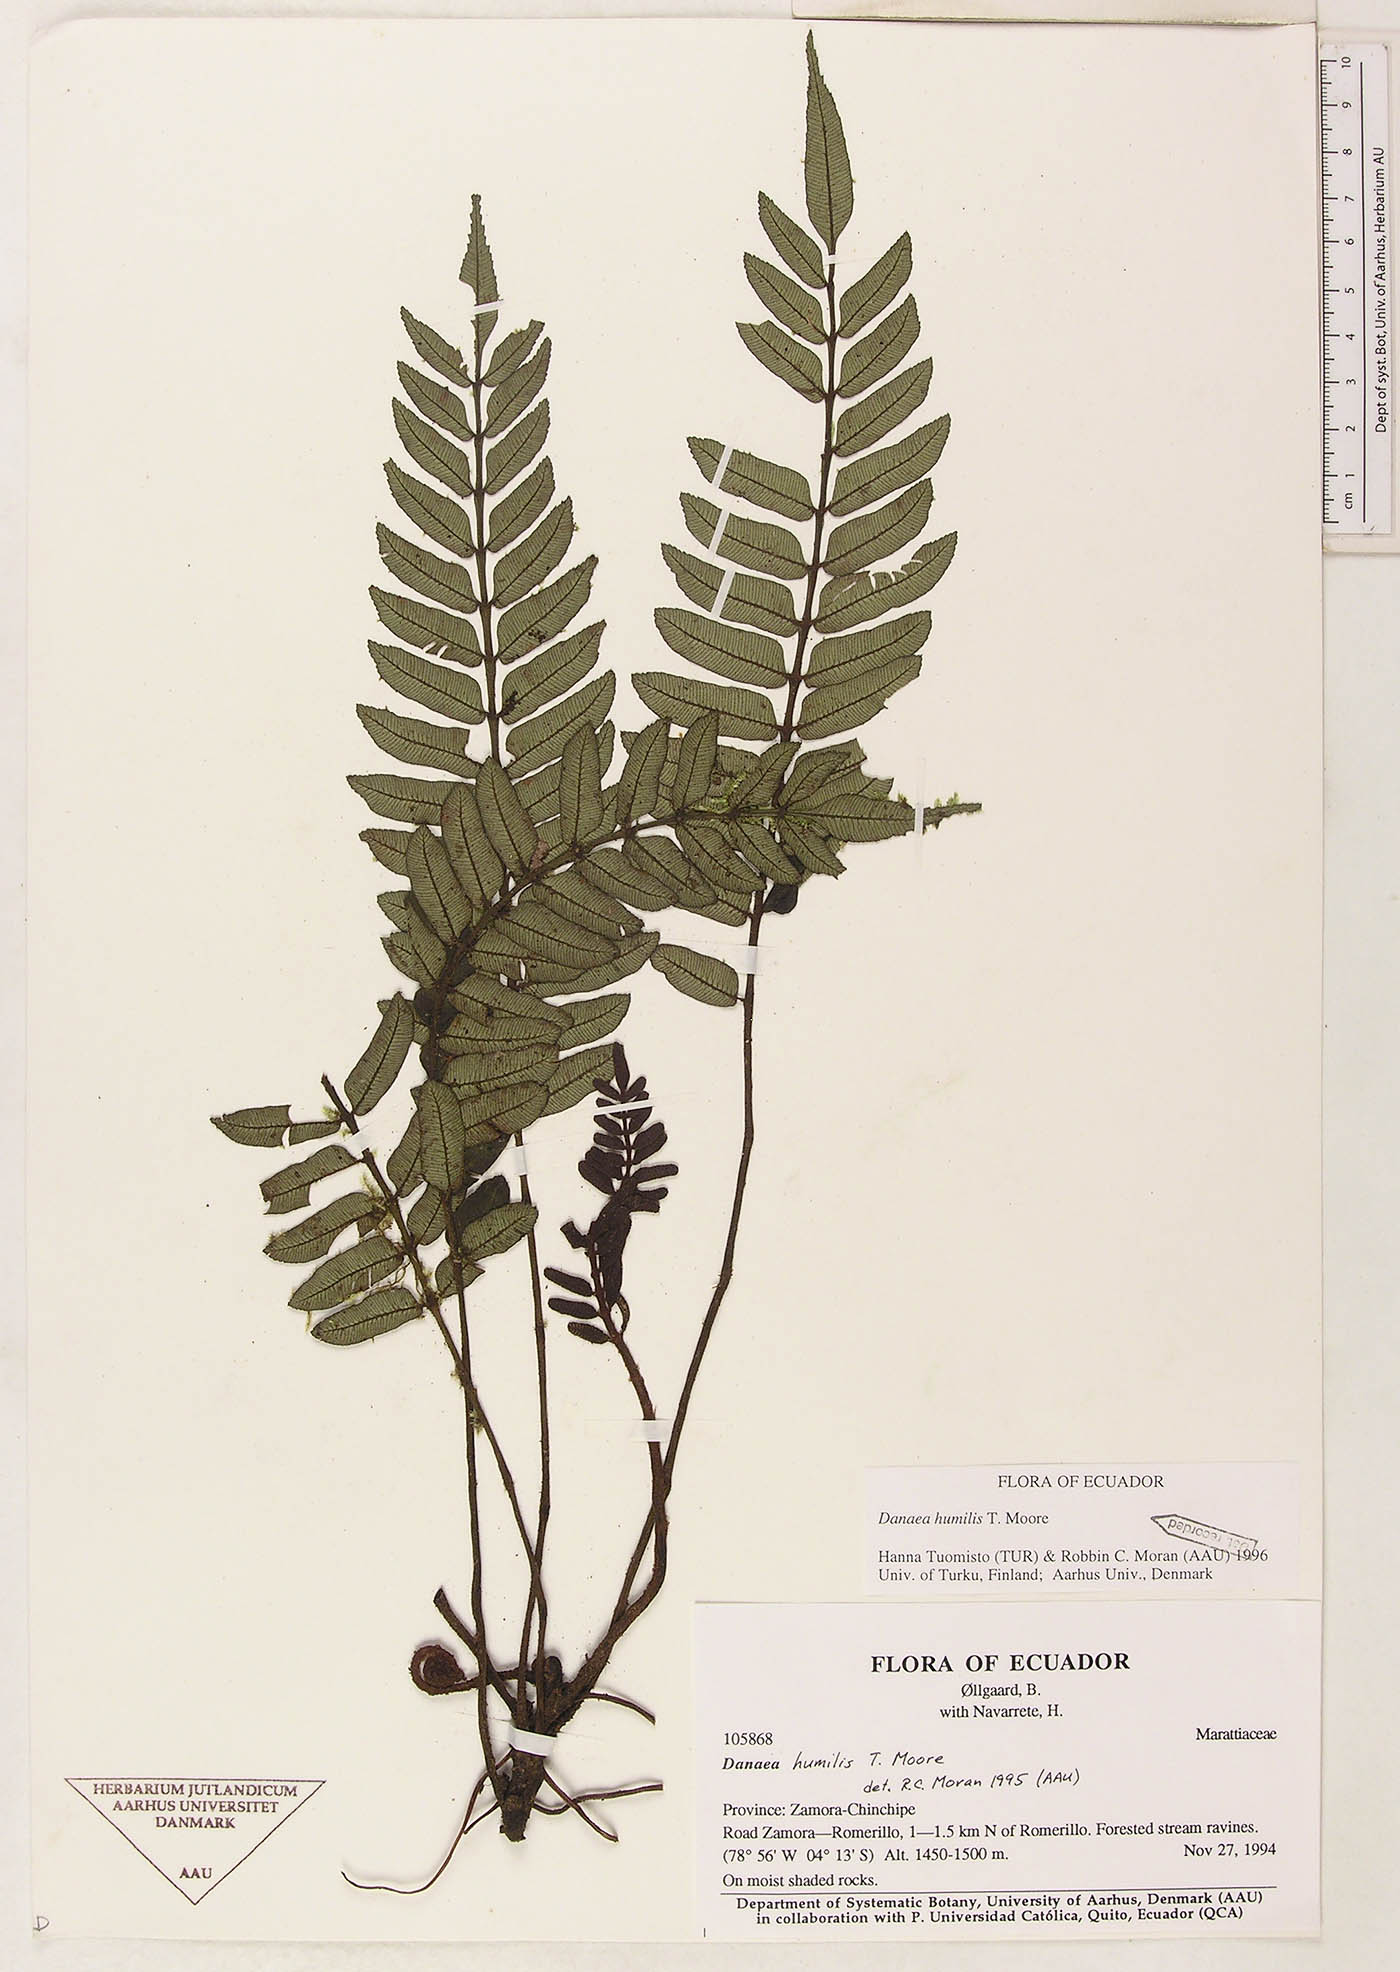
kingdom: Plantae
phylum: Tracheophyta
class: Polypodiopsida
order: Marattiales
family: Marattiaceae
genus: Danaea
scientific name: Danaea
